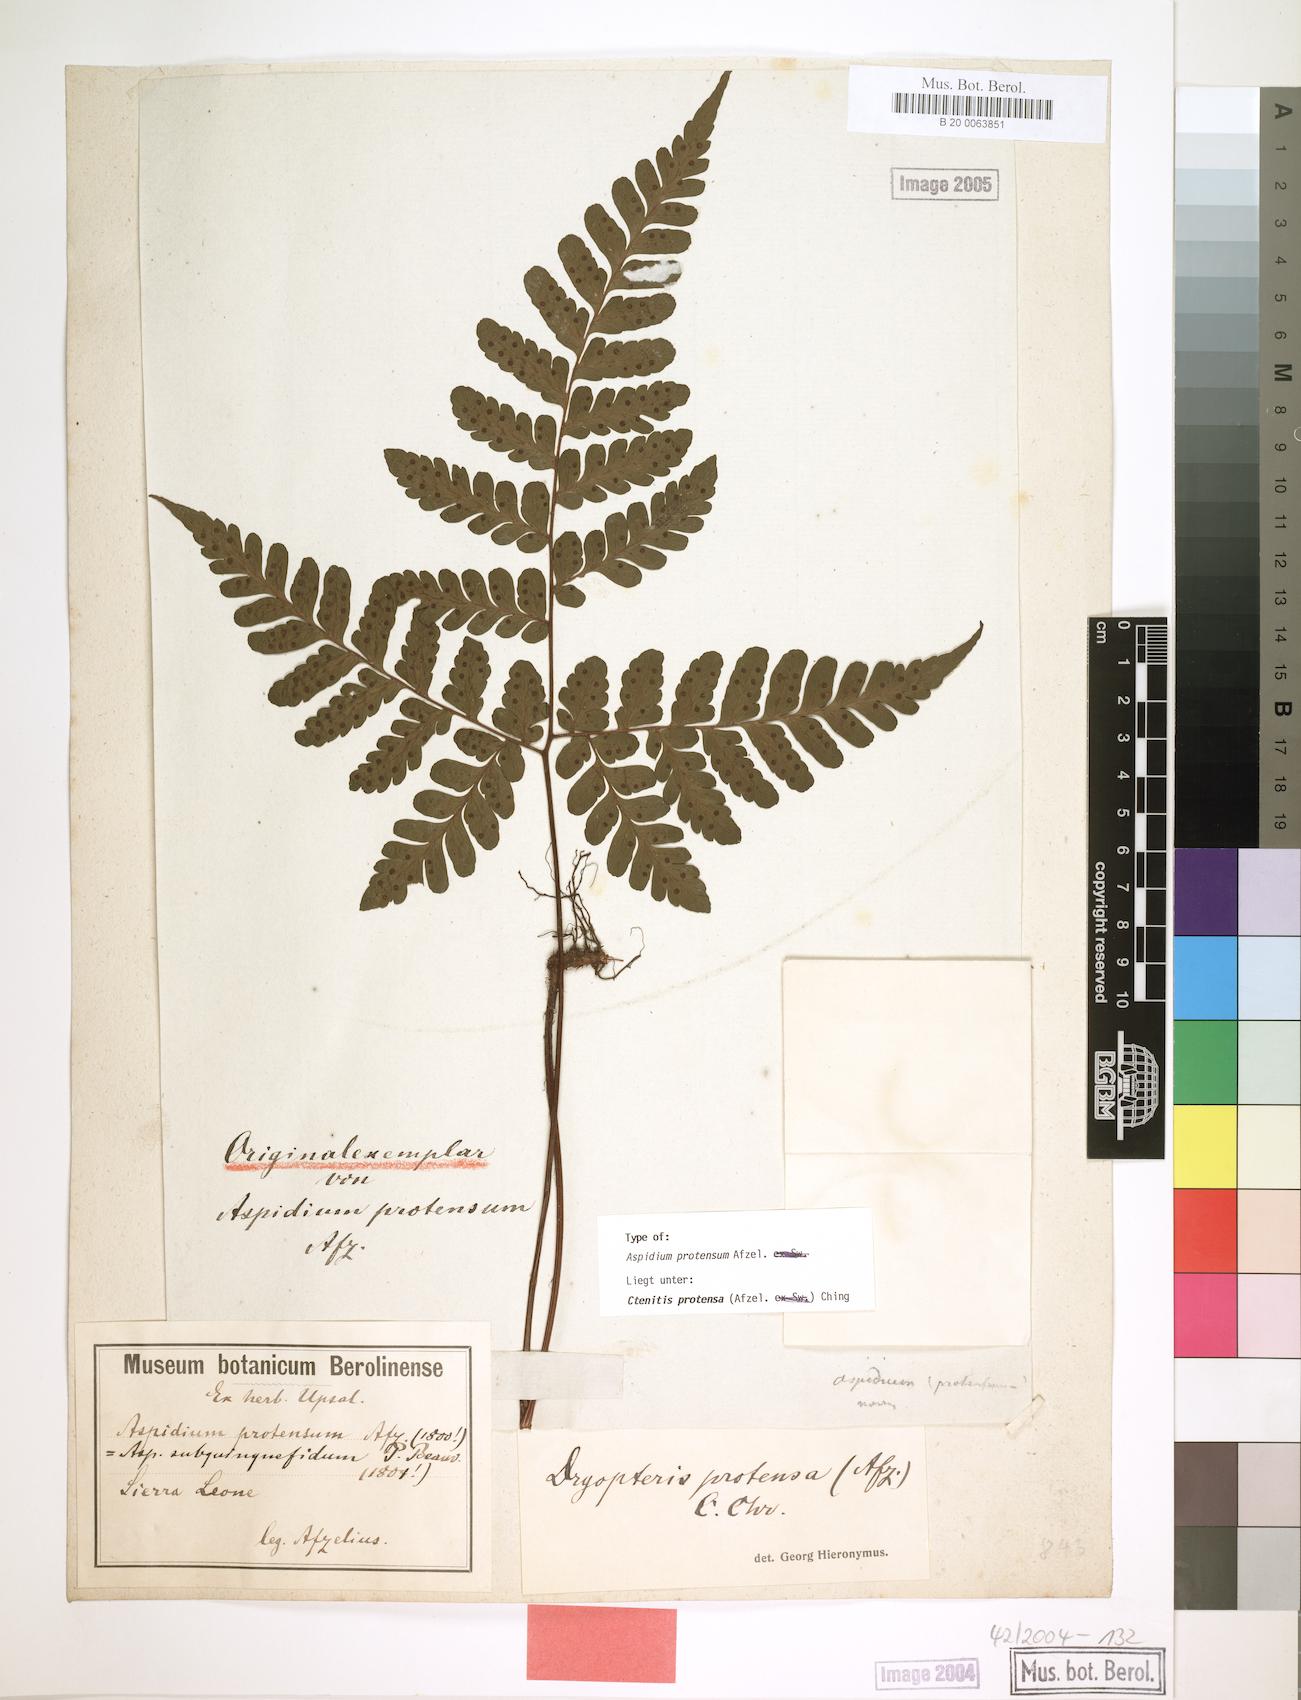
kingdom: Plantae
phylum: Tracheophyta
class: Polypodiopsida
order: Polypodiales
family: Tectariaceae
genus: Triplophyllum
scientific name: Triplophyllum protensum
